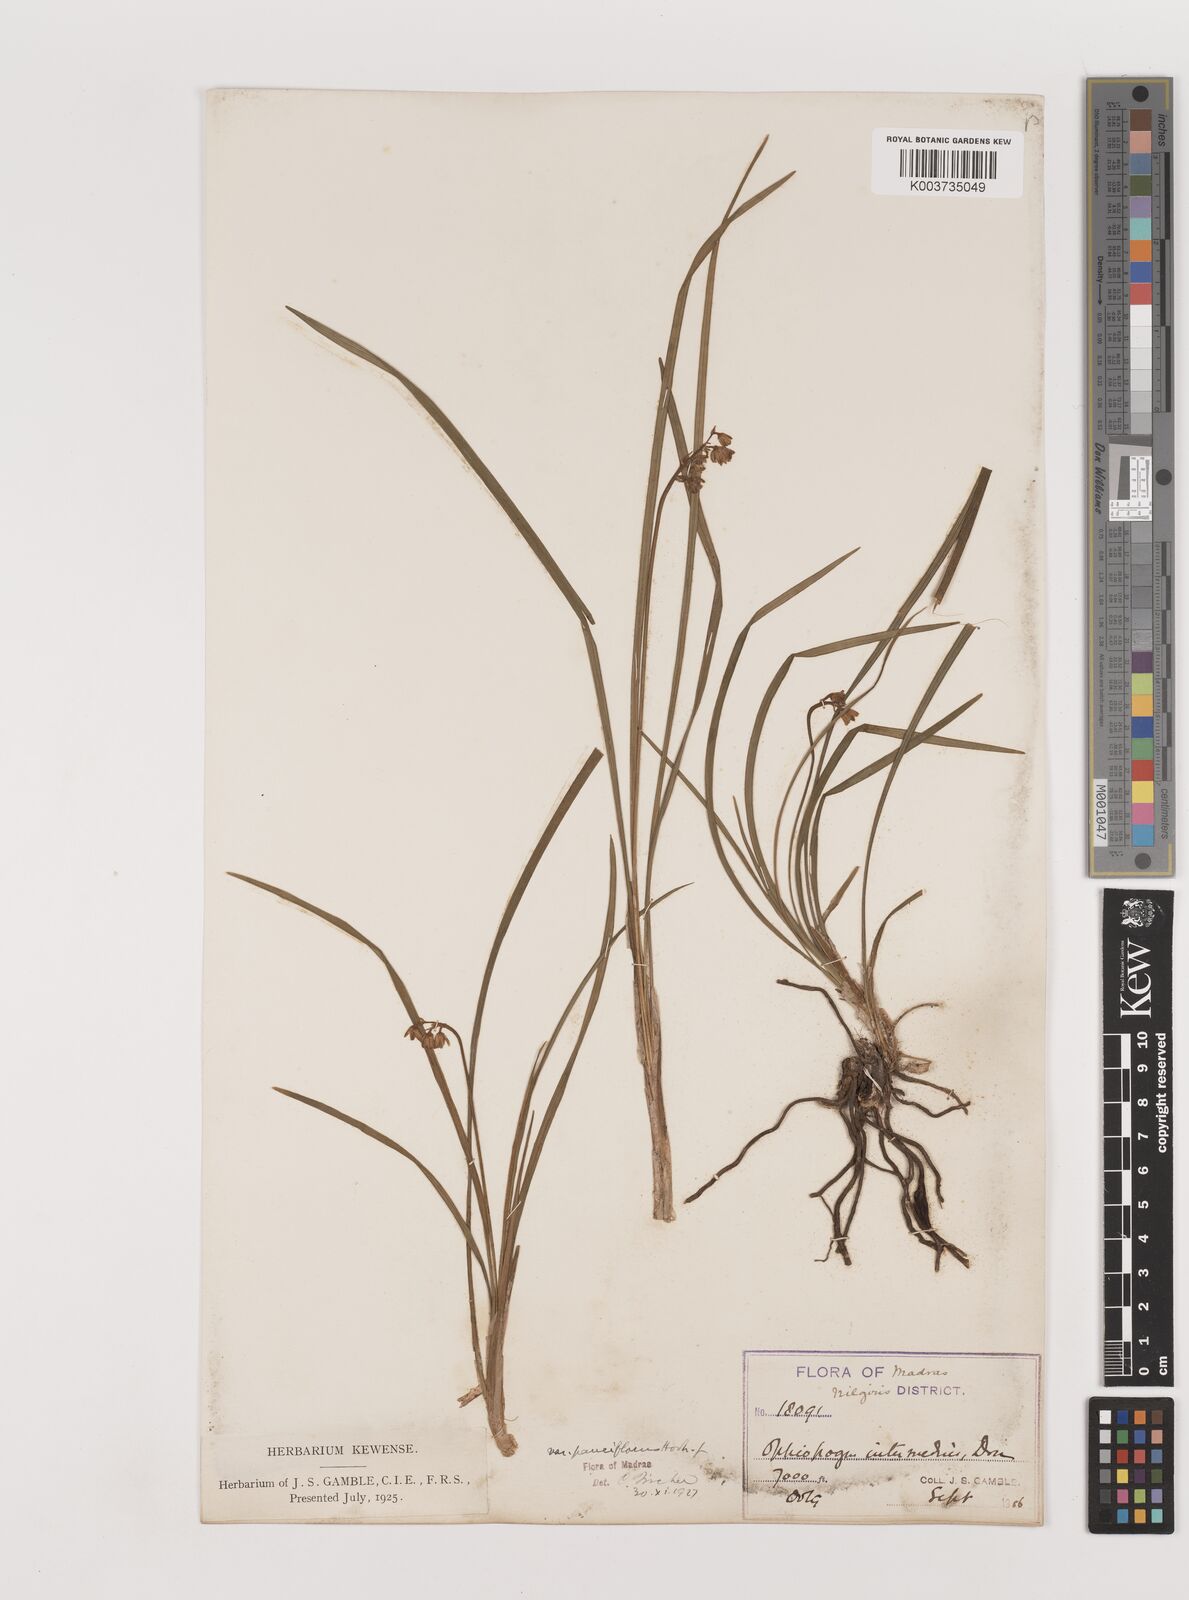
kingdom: Plantae
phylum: Tracheophyta
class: Liliopsida
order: Asparagales
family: Asparagaceae
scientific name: Asparagaceae
